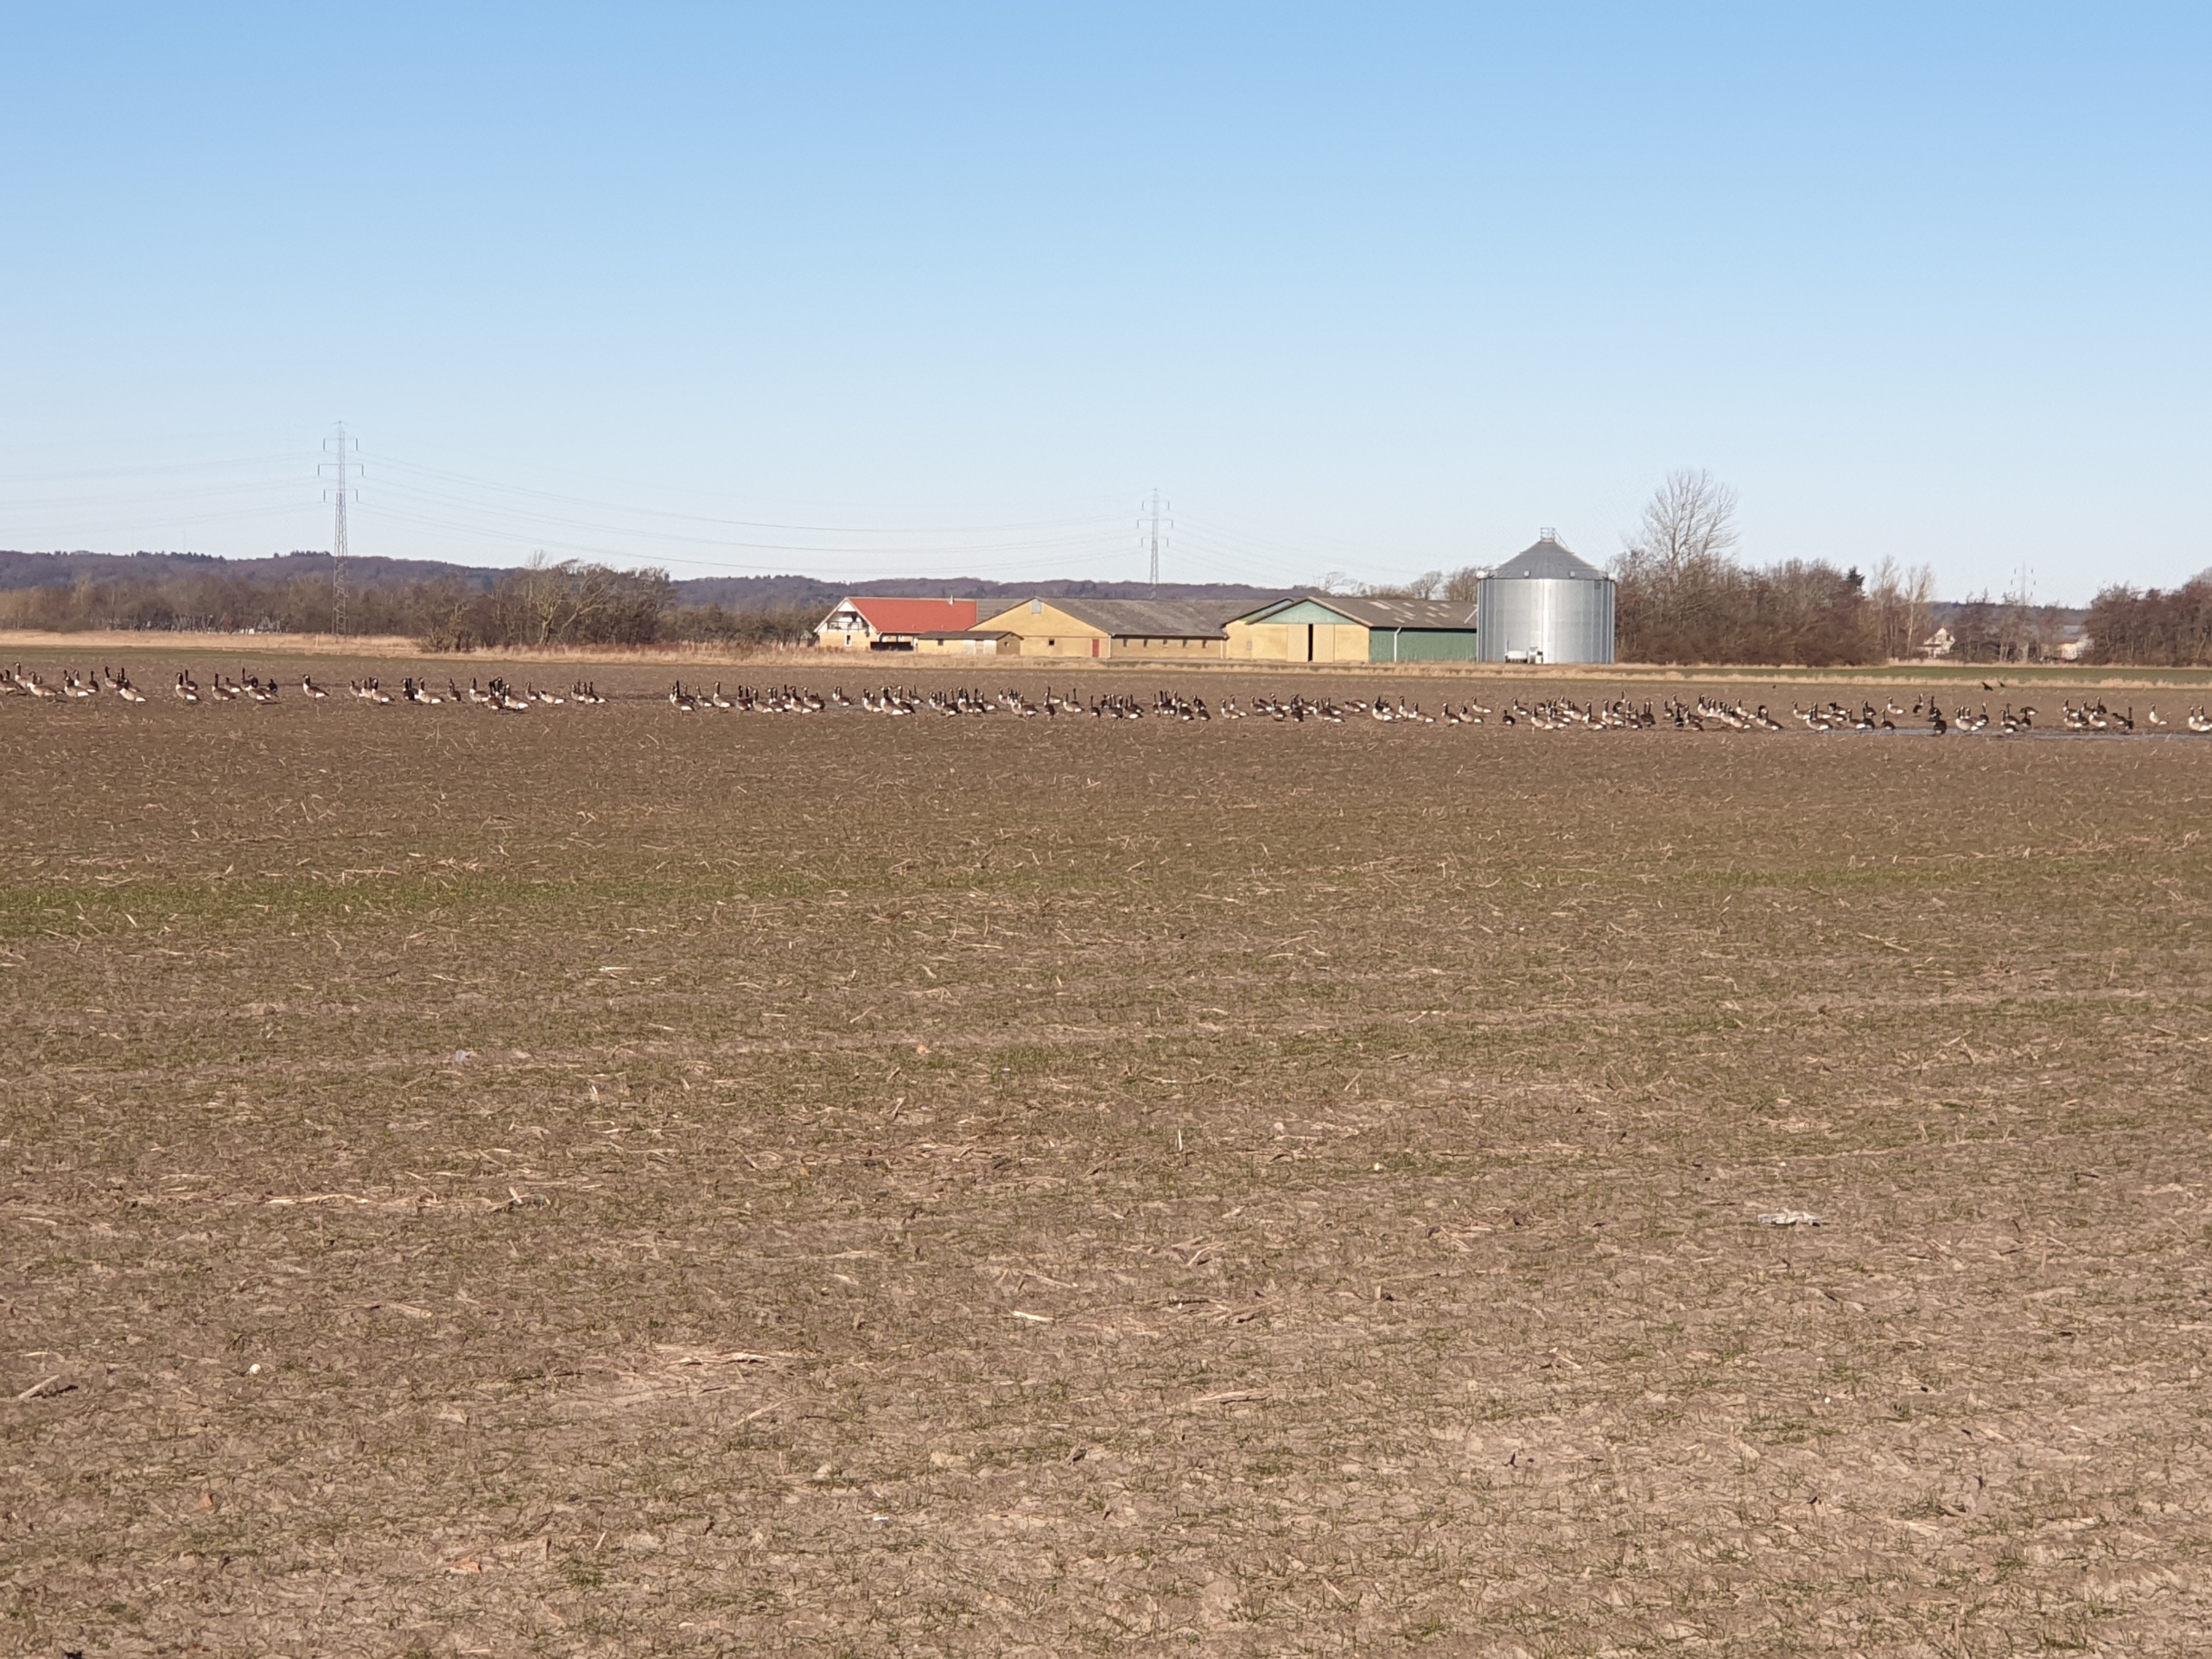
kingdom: Animalia
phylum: Chordata
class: Aves
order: Anseriformes
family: Anatidae
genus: Branta
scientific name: Branta canadensis
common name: Canadagås
